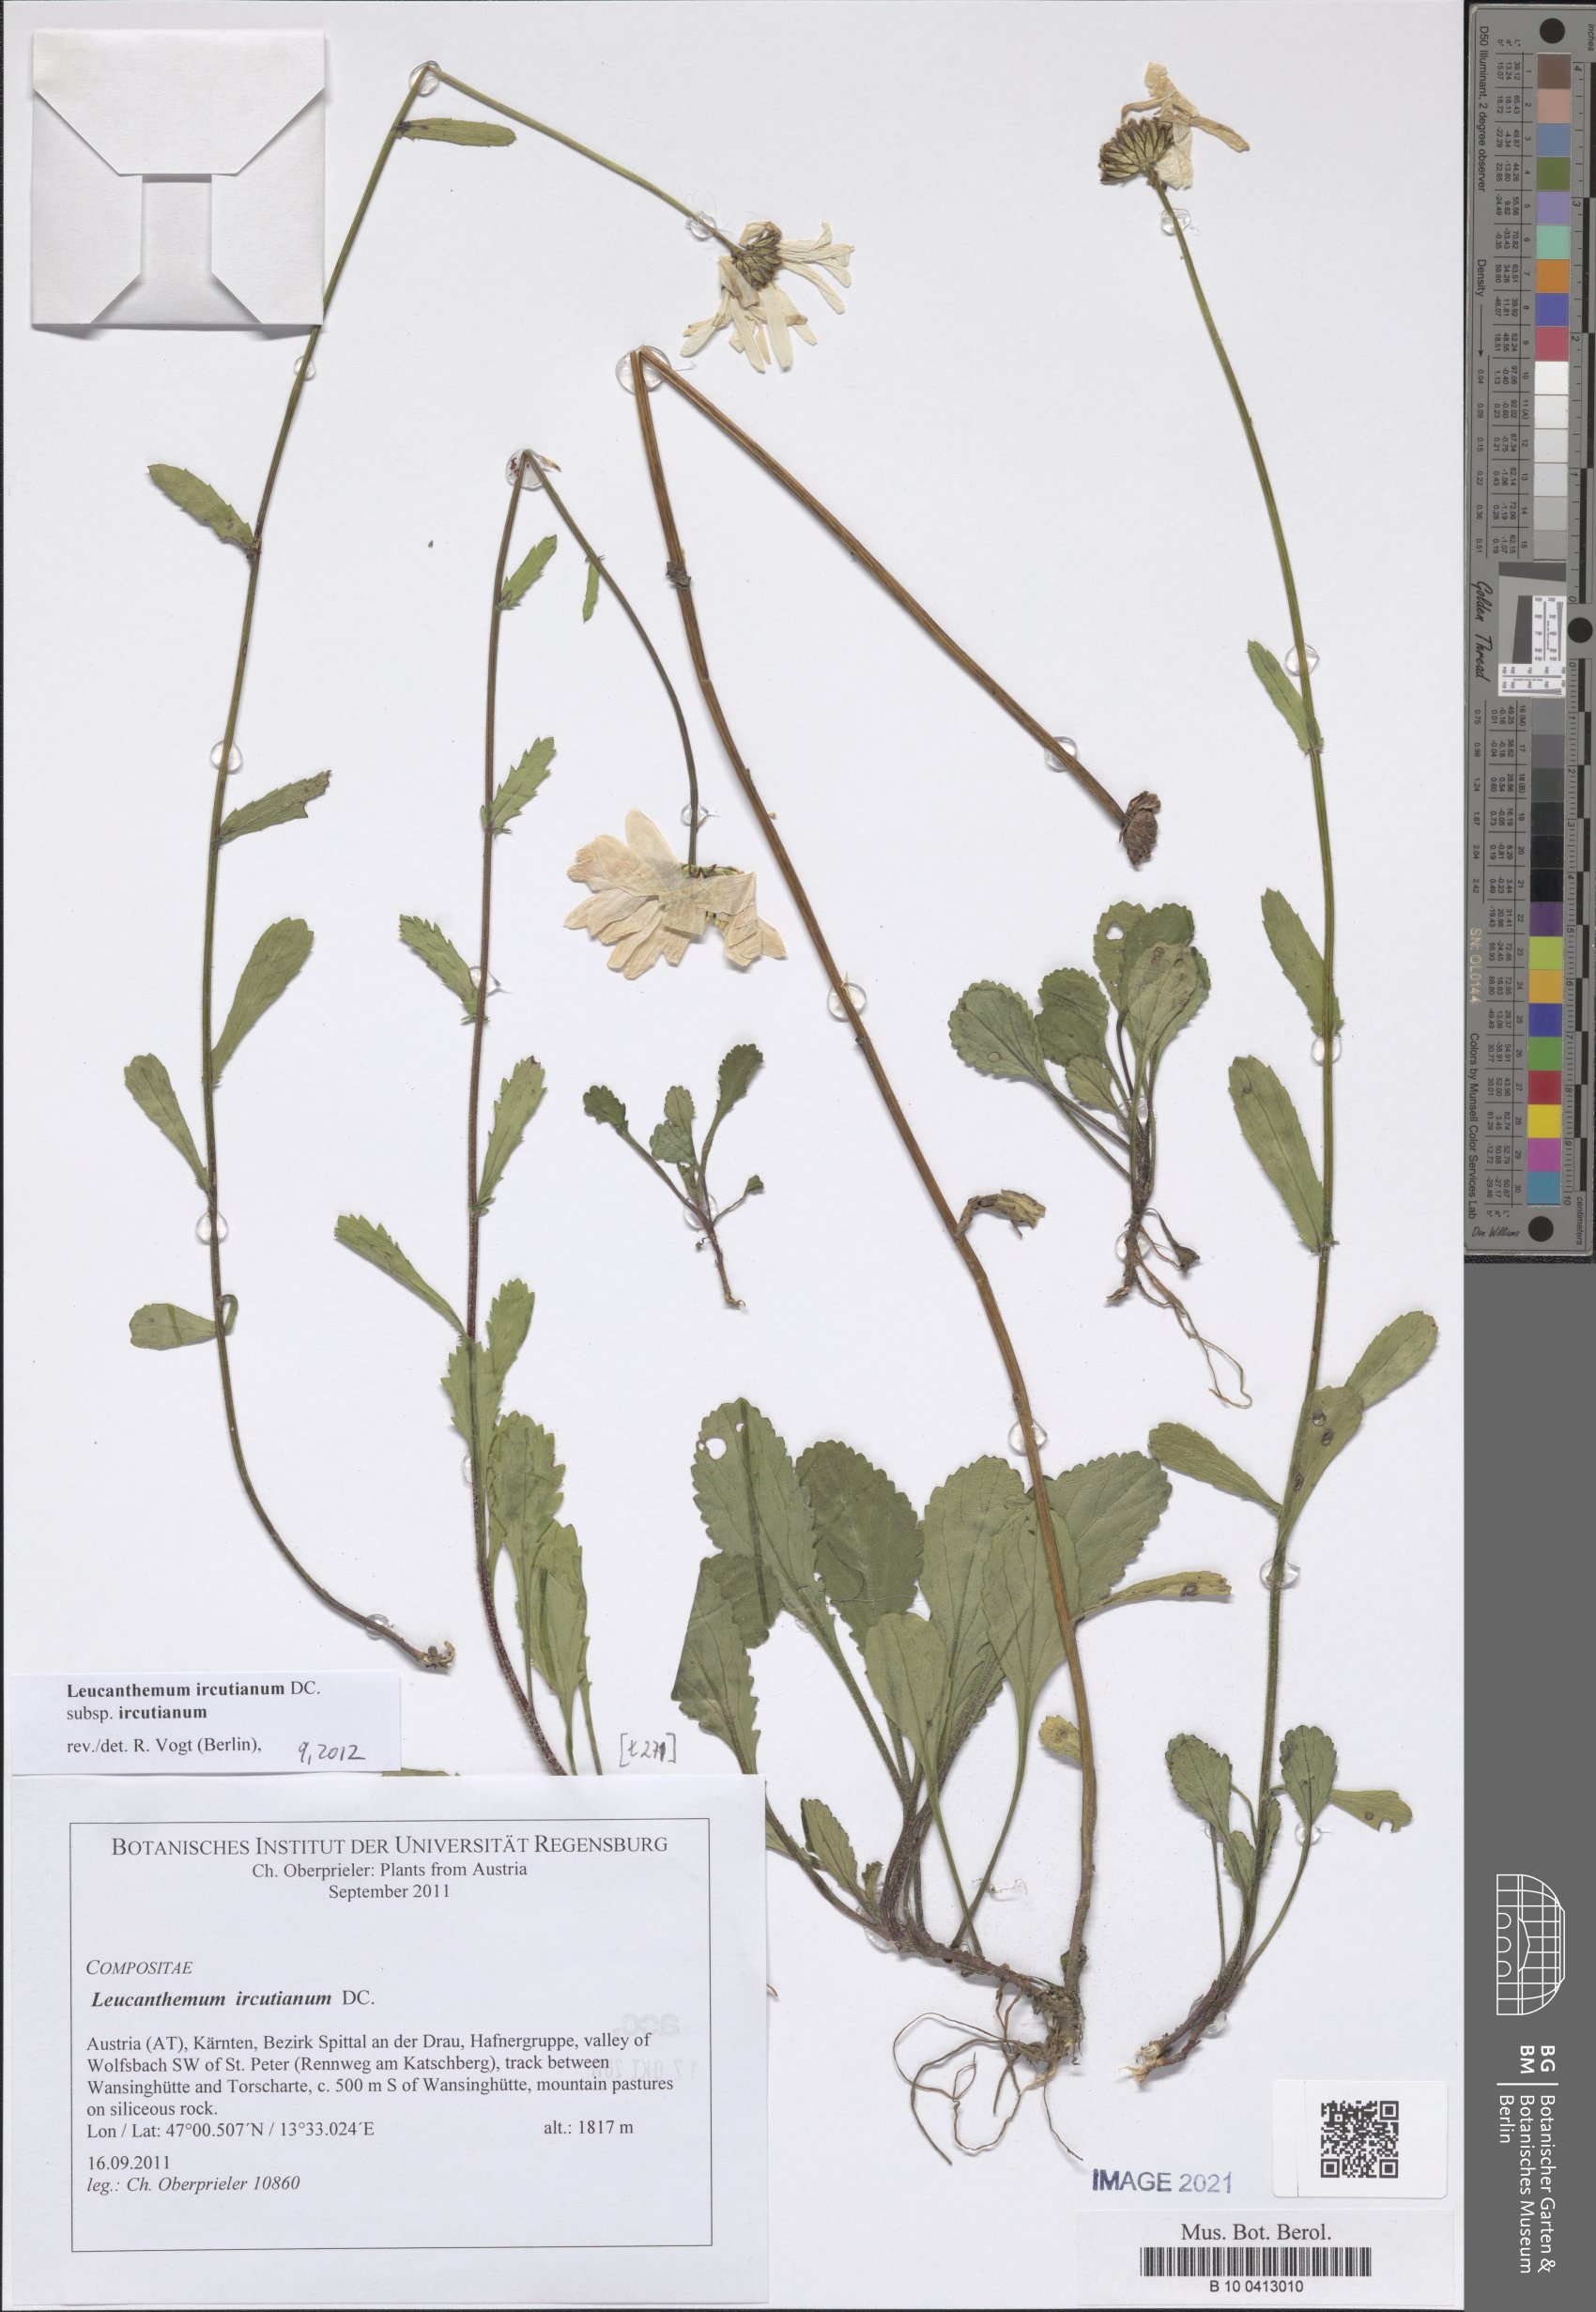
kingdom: Plantae
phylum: Tracheophyta
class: Magnoliopsida
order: Asterales
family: Asteraceae
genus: Leucanthemum
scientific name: Leucanthemum ircutianum
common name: Daisy
